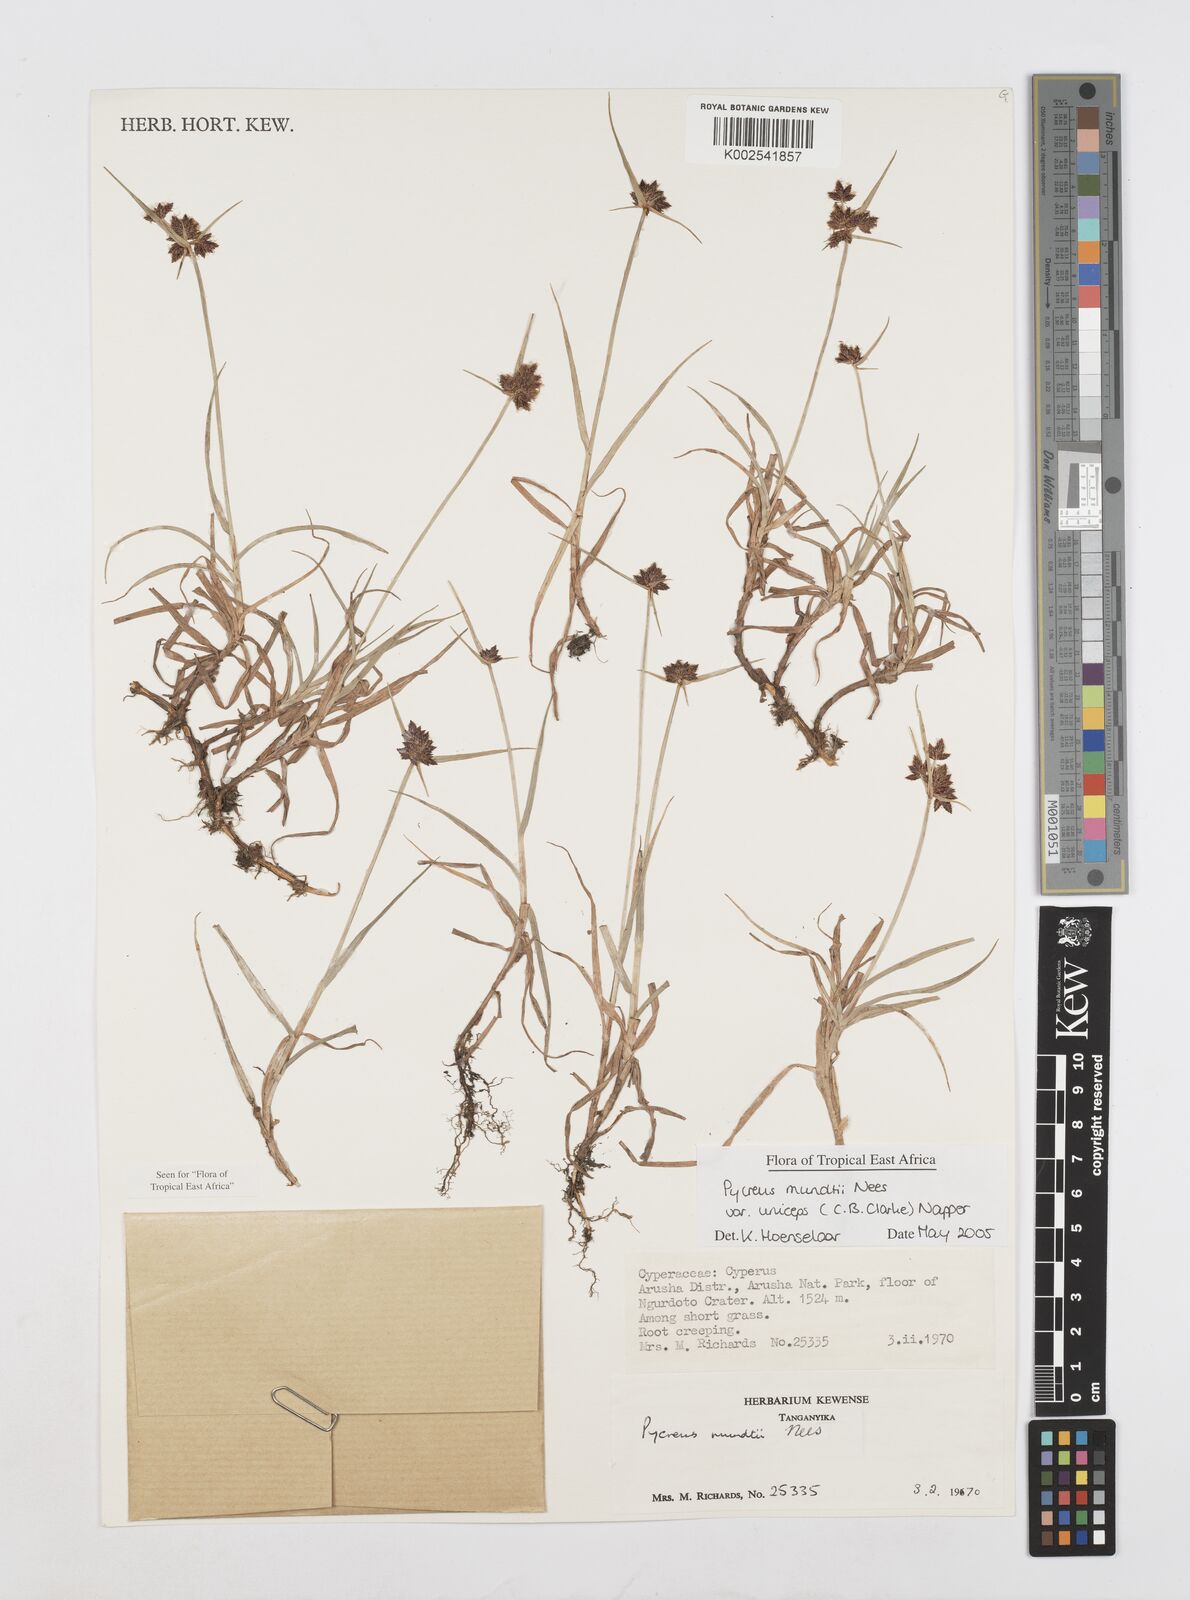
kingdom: Plantae
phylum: Tracheophyta
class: Liliopsida
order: Poales
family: Cyperaceae
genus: Cyperus
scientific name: Cyperus mundii
